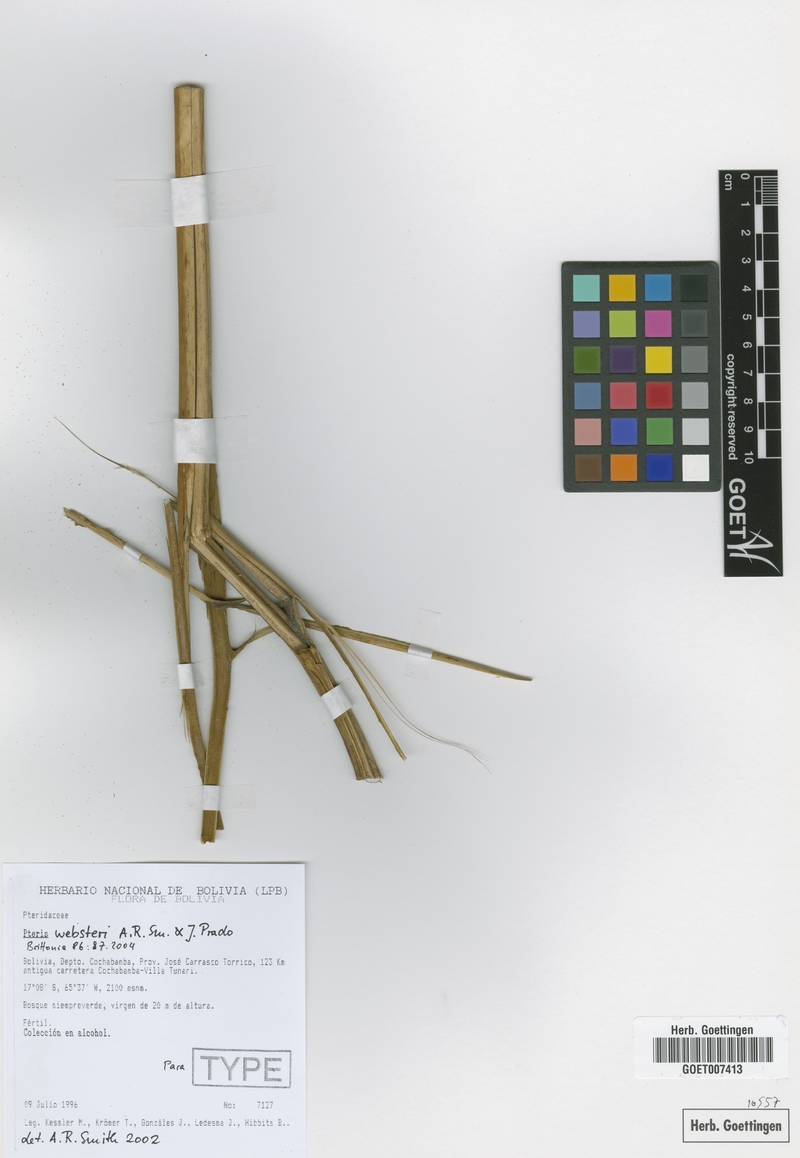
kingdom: Plantae
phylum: Tracheophyta
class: Polypodiopsida
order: Polypodiales
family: Pteridaceae
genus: Pteris
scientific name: Pteris websteri
